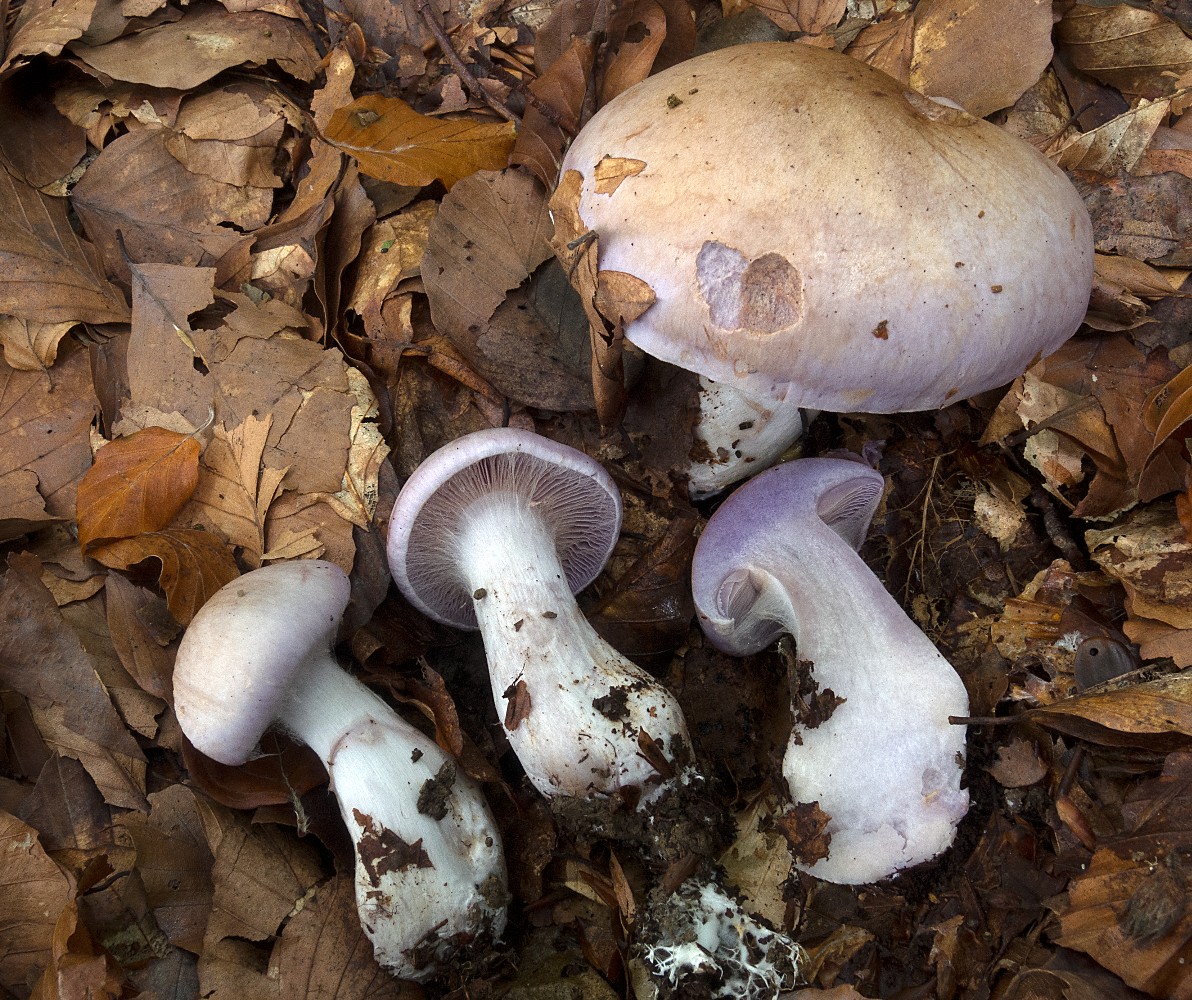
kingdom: Fungi
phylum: Basidiomycota
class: Agaricomycetes
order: Agaricales
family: Cortinariaceae
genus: Cortinarius
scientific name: Cortinarius largus
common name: violetrandet slørhat
